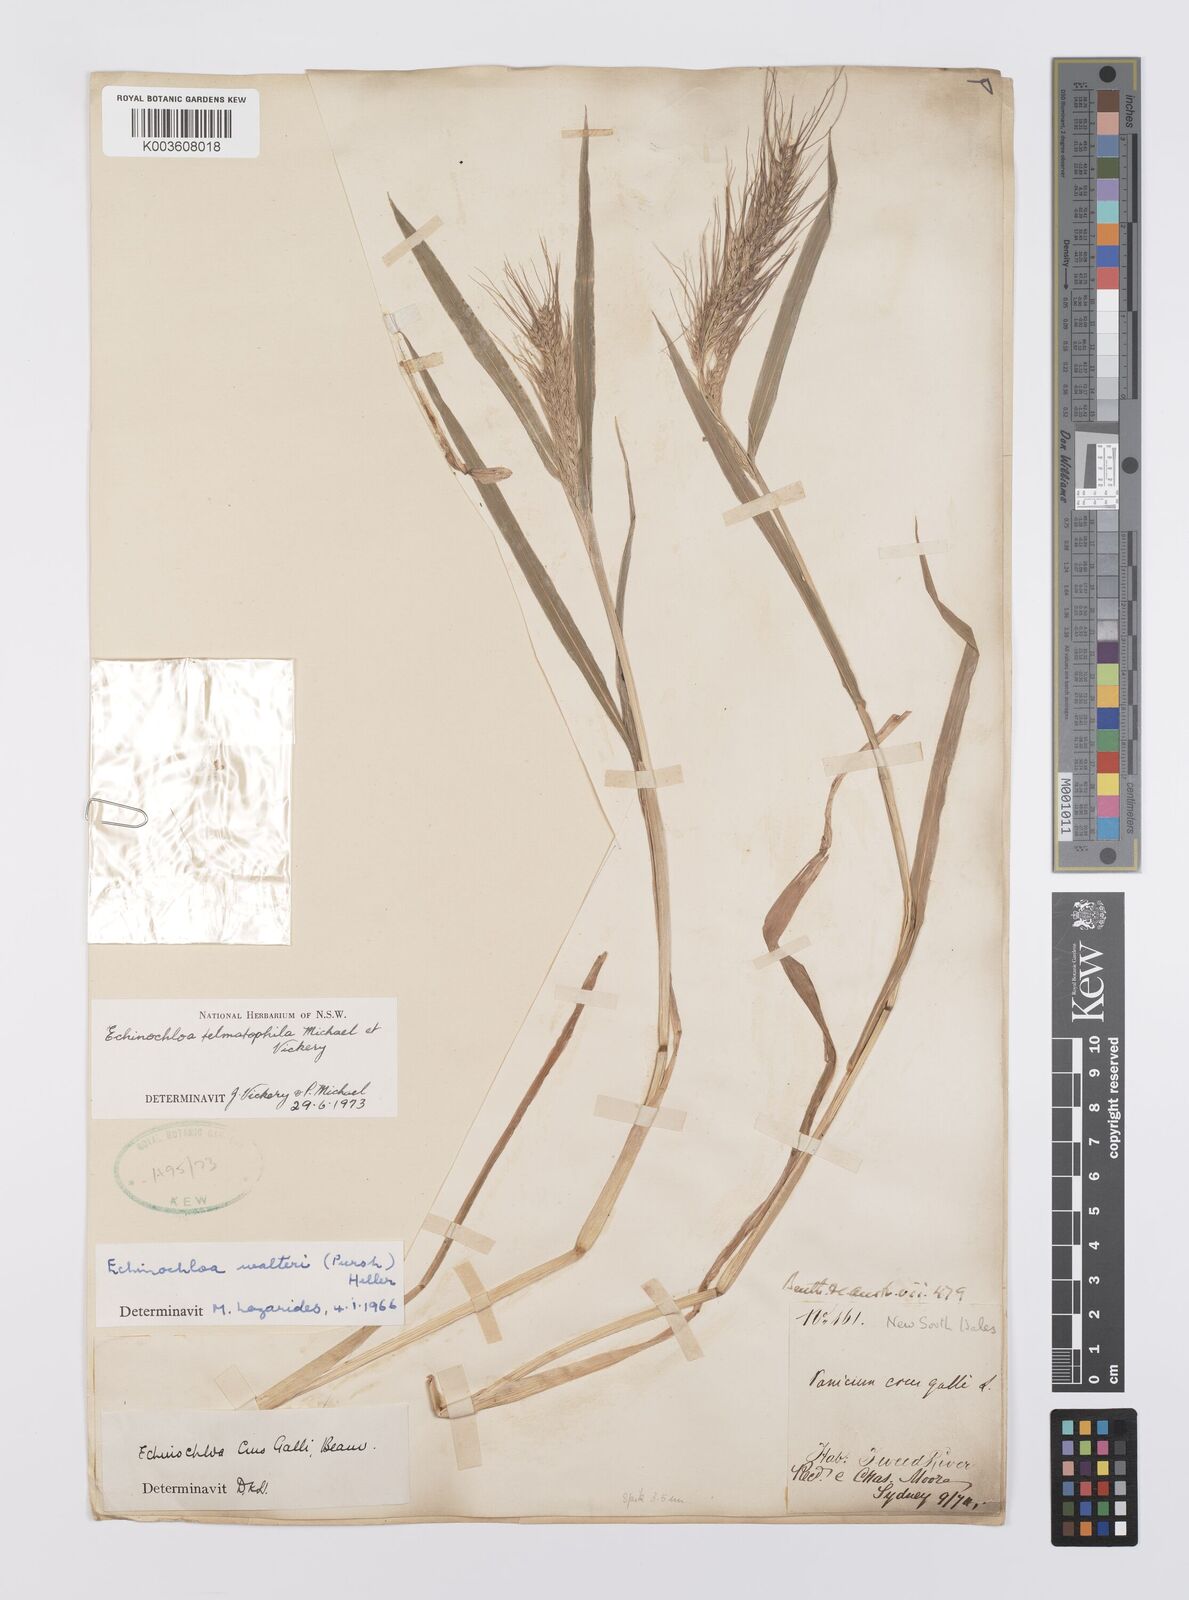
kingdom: Plantae
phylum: Tracheophyta
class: Liliopsida
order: Poales
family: Poaceae
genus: Echinochloa
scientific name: Echinochloa crus-galli
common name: Cockspur
